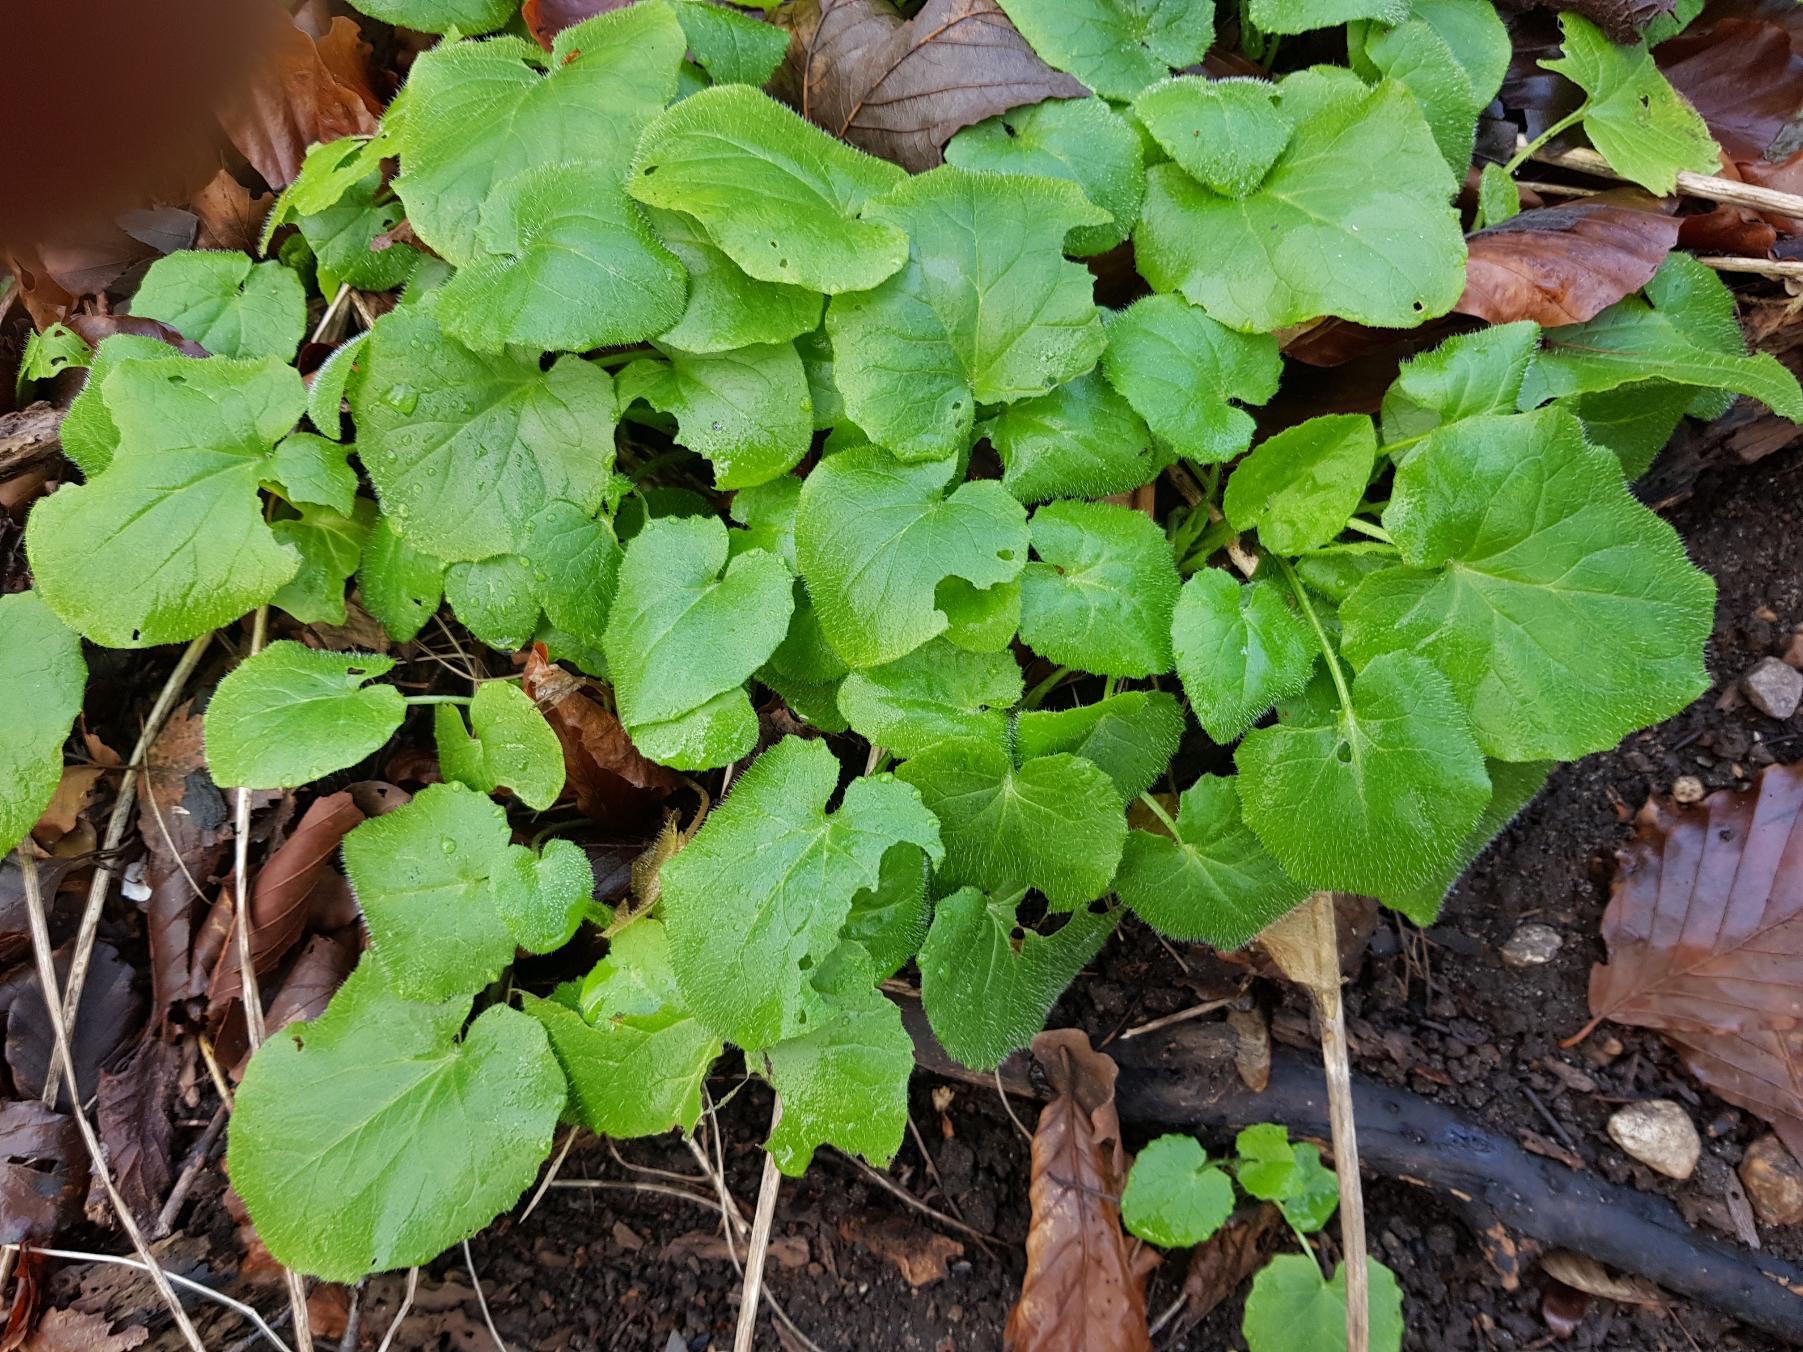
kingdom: Plantae
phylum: Tracheophyta
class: Magnoliopsida
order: Asterales
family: Asteraceae
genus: Doronicum
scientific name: Doronicum pardalianches
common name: Hjertebladet gemserod
